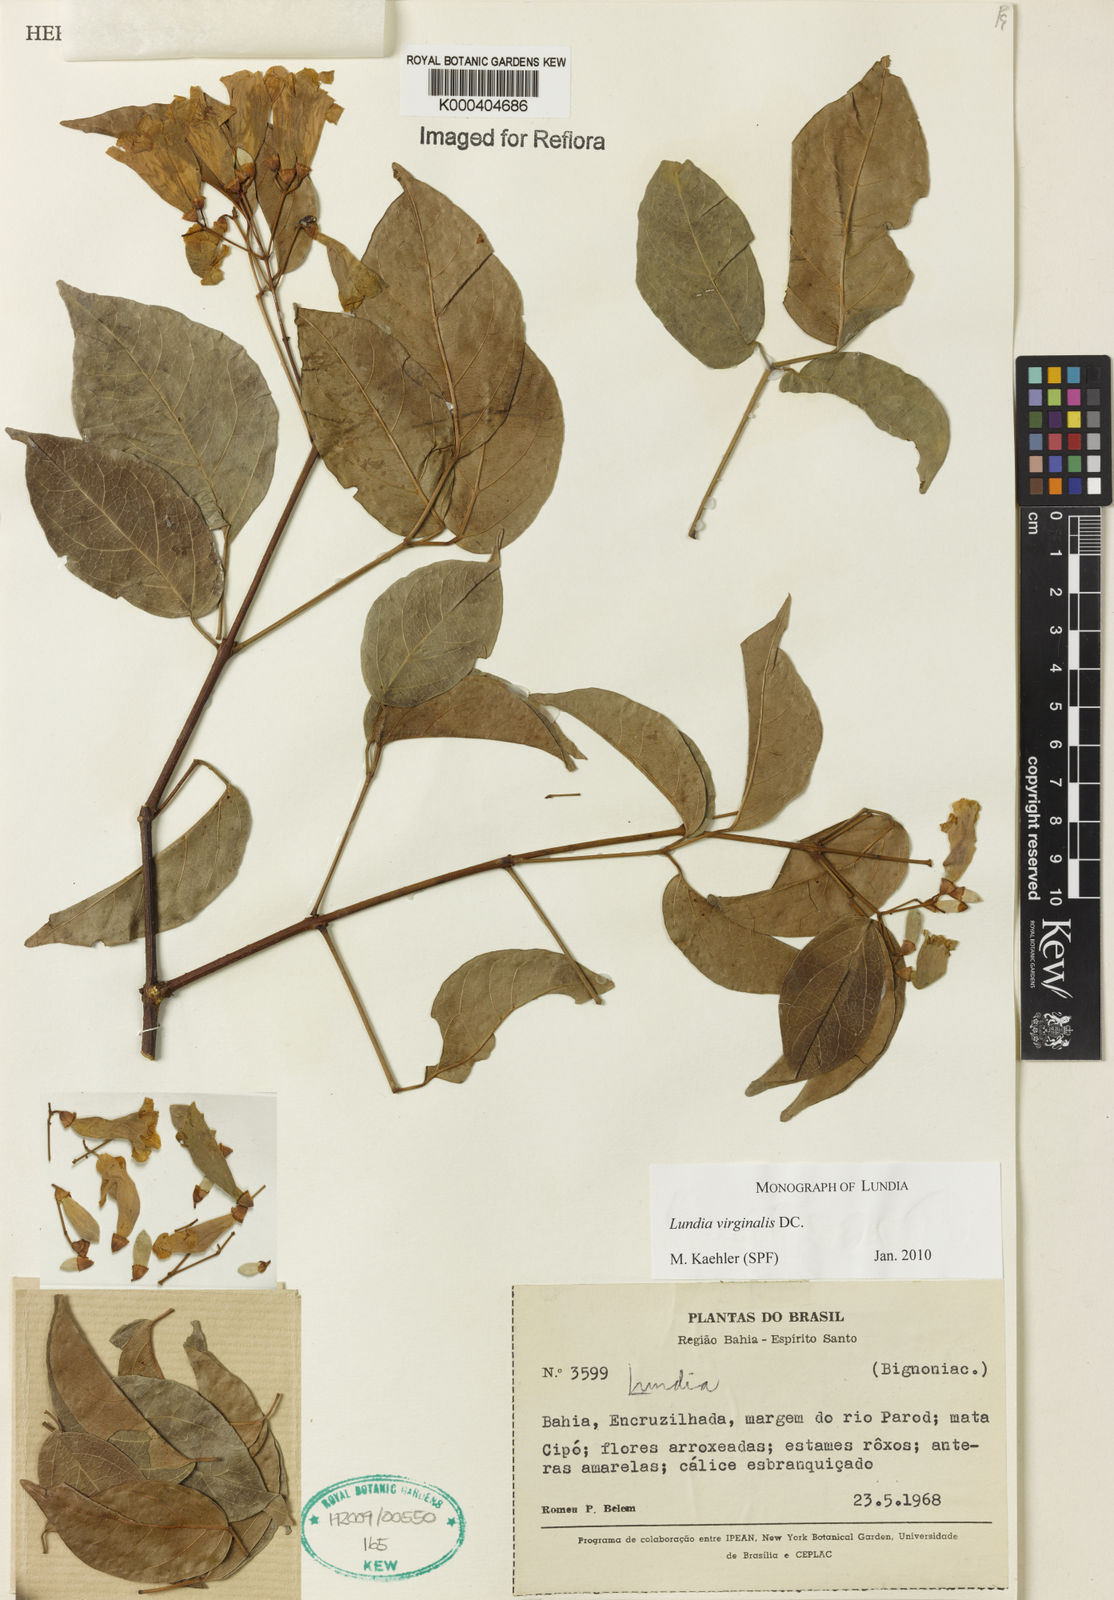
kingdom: Plantae
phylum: Tracheophyta
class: Magnoliopsida
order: Lamiales
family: Bignoniaceae
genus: Lundia
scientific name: Lundia virginalis
